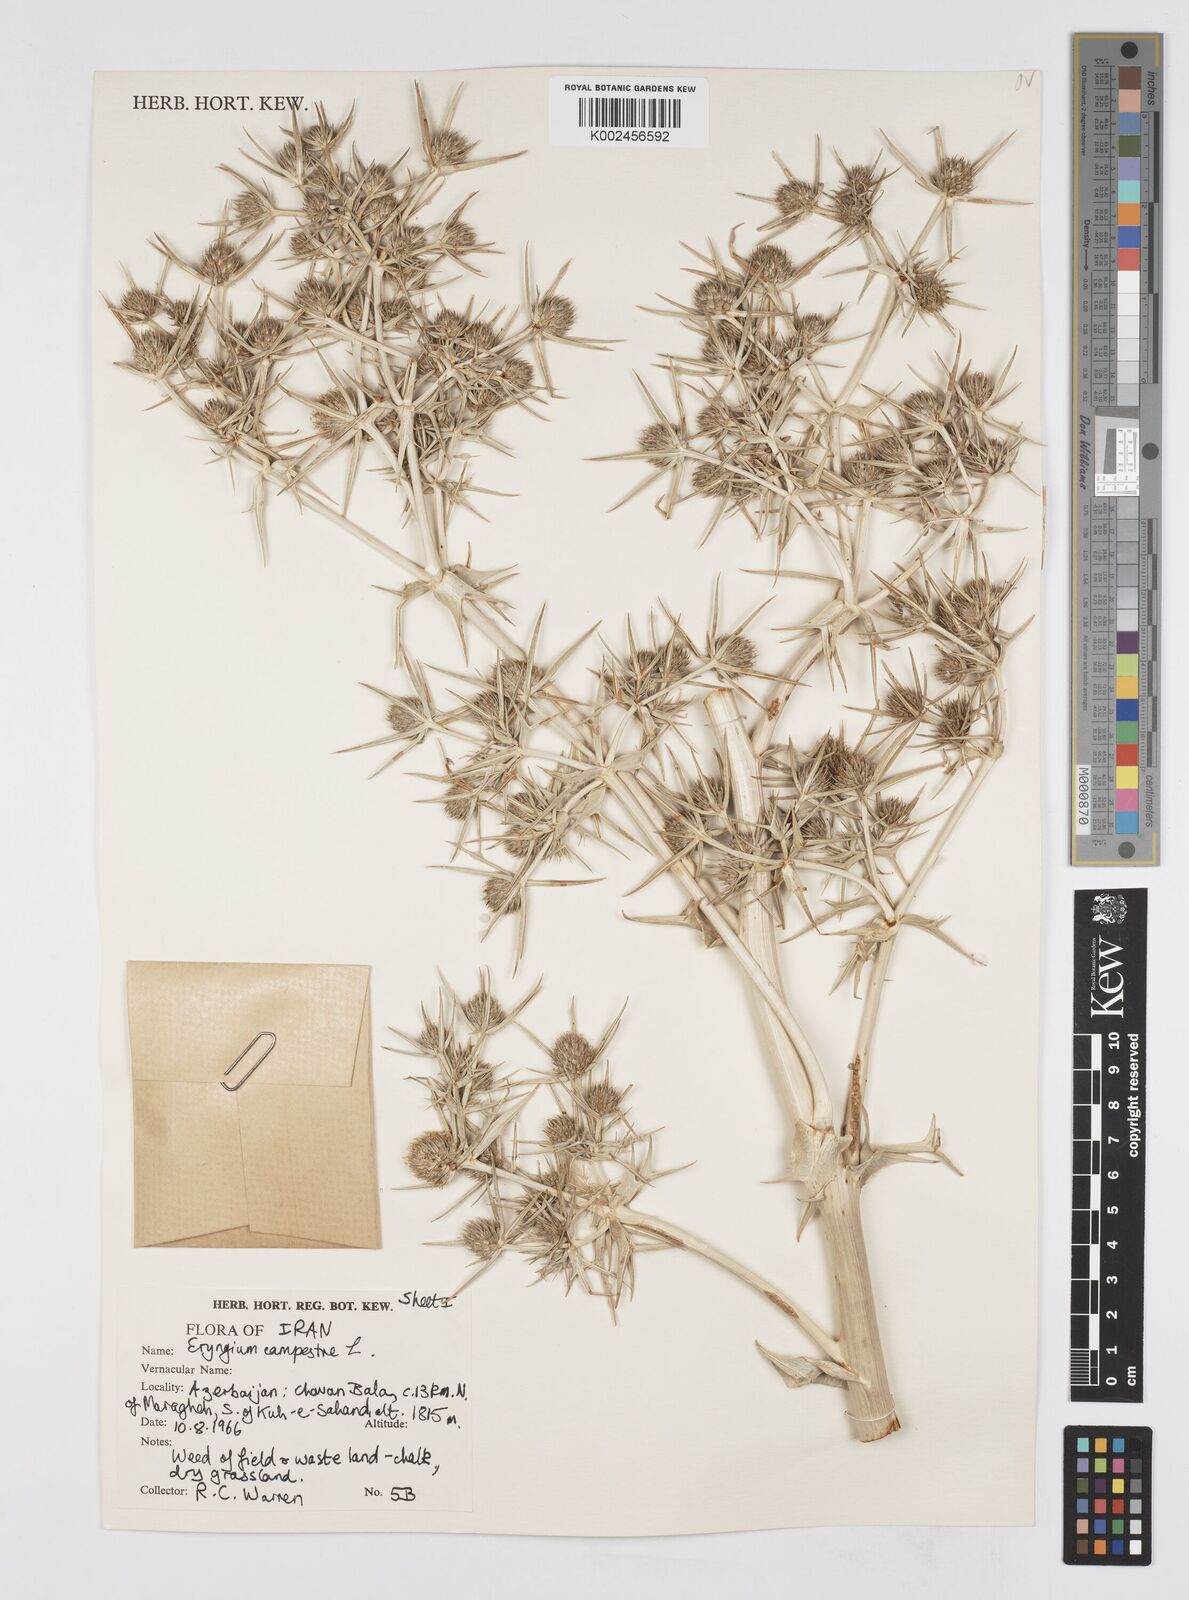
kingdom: Plantae
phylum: Tracheophyta
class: Magnoliopsida
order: Apiales
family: Apiaceae
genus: Eryngium
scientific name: Eryngium campestre
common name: Field eryngo
